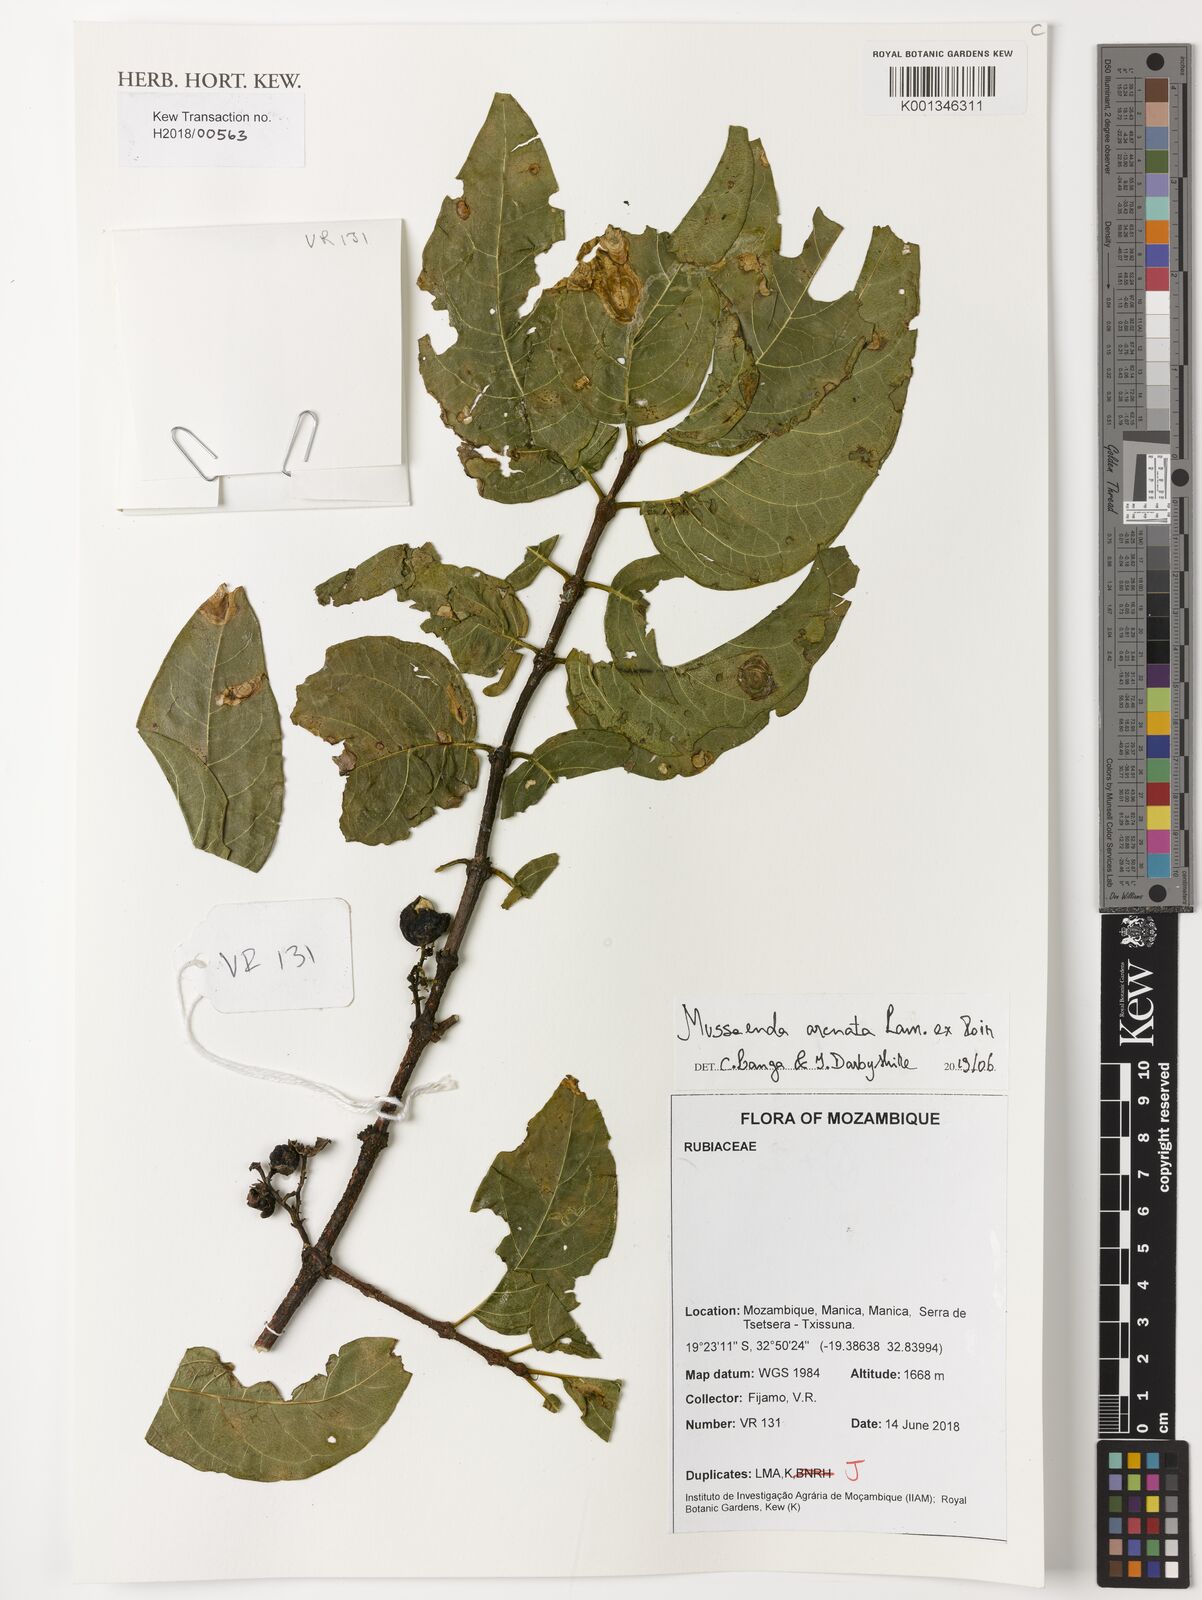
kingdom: Plantae
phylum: Tracheophyta
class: Magnoliopsida
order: Gentianales
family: Rubiaceae
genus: Mussaenda
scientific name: Mussaenda arcuata
